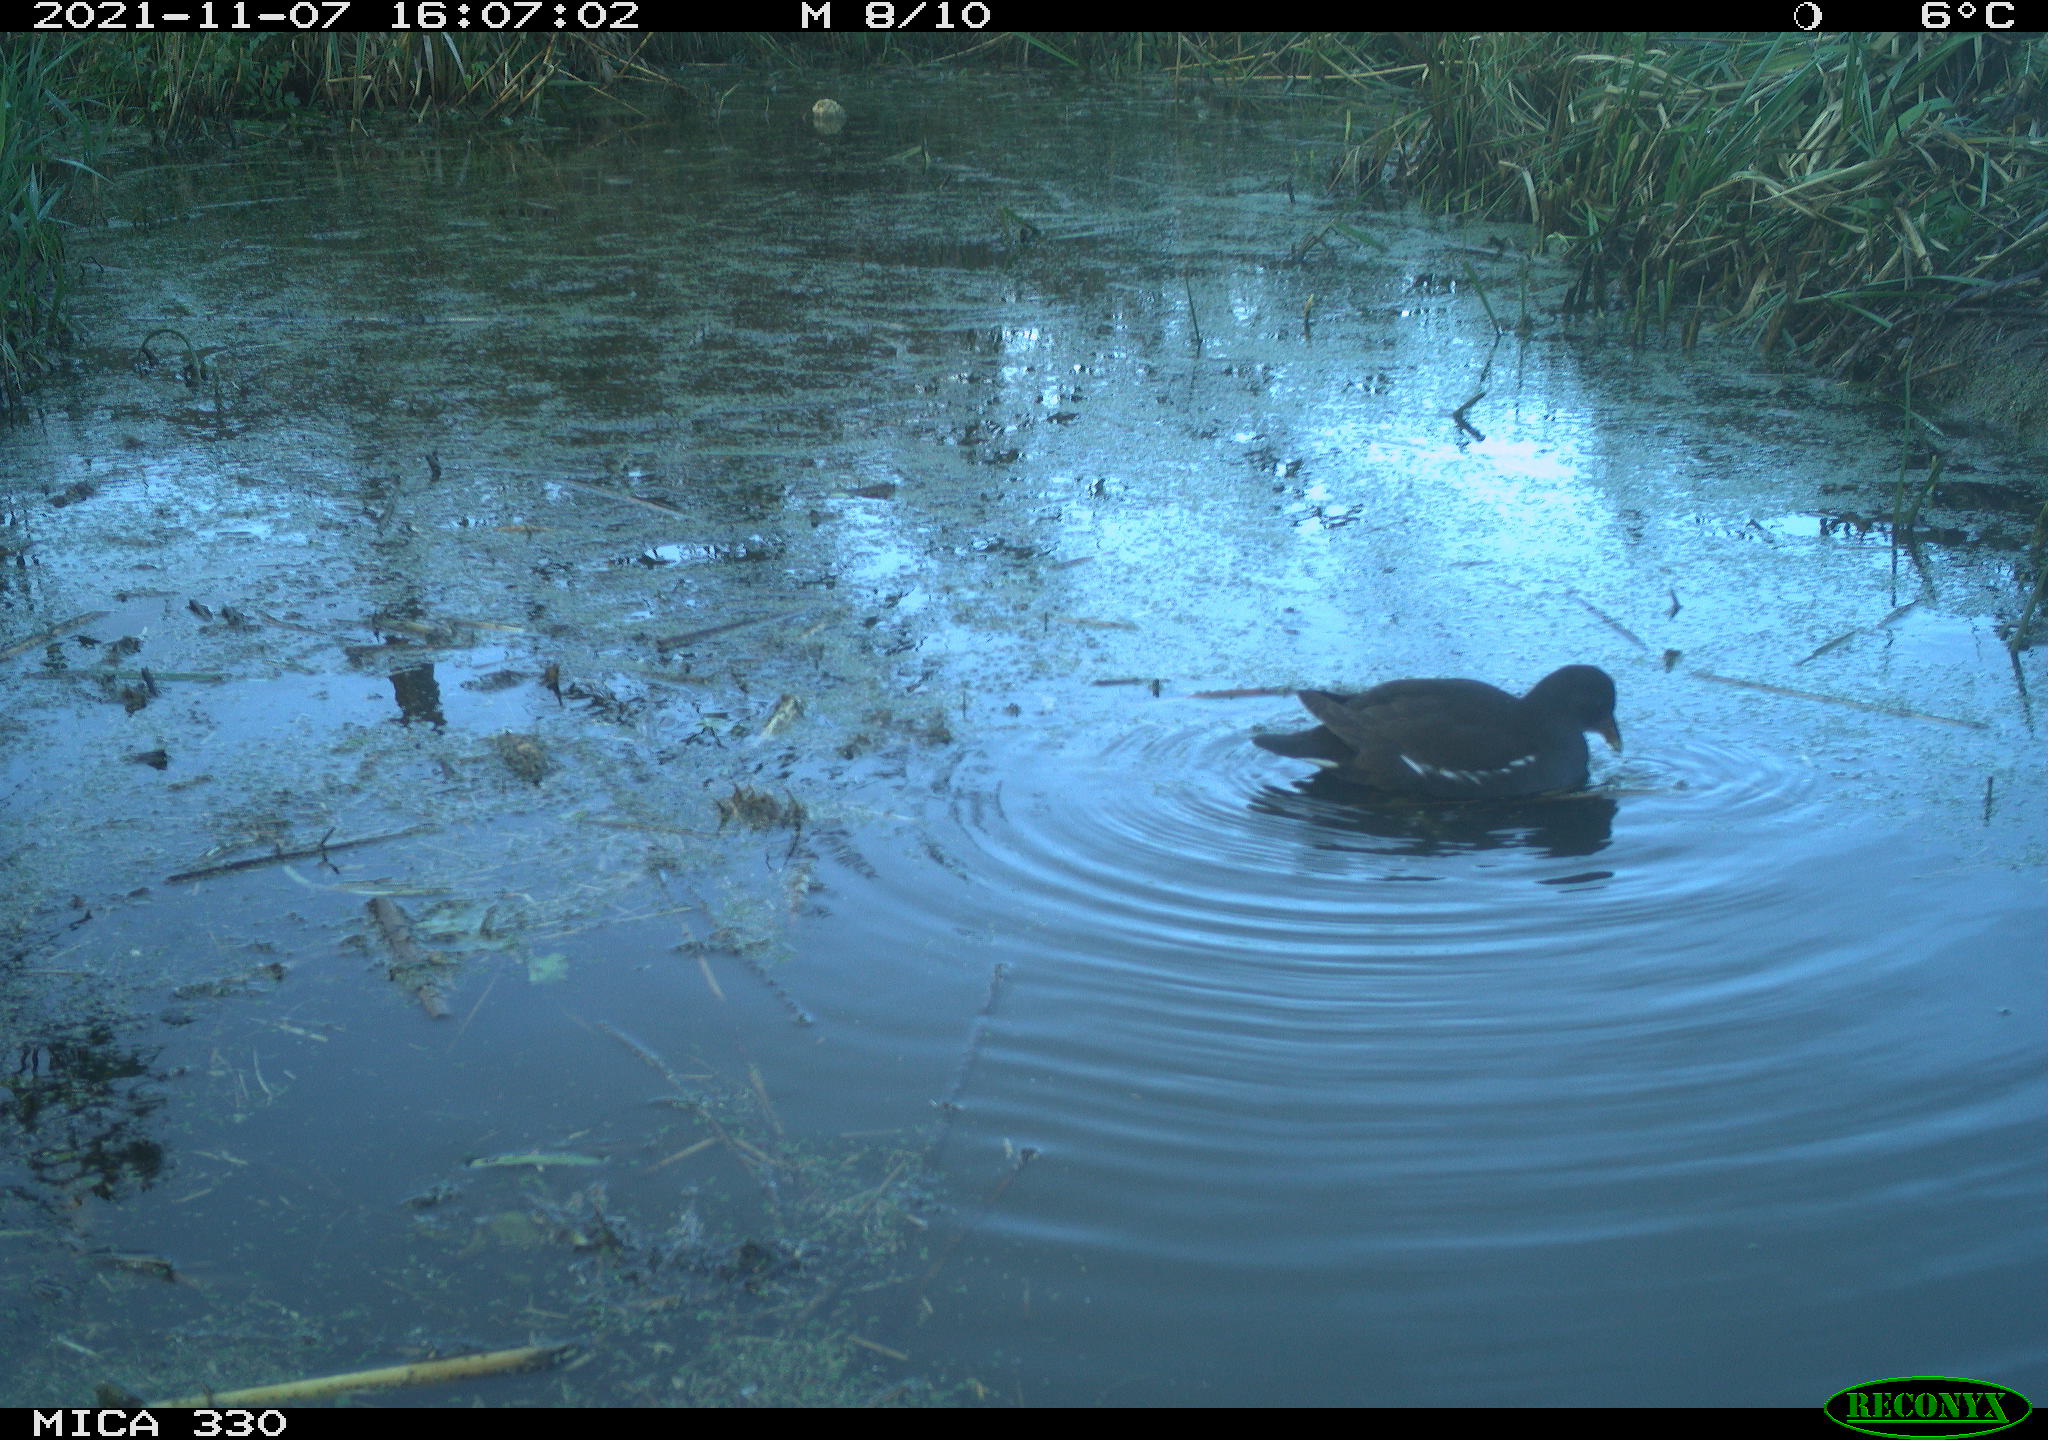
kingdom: Animalia
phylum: Chordata
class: Aves
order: Gruiformes
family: Rallidae
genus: Gallinula
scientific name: Gallinula chloropus
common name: Common moorhen
